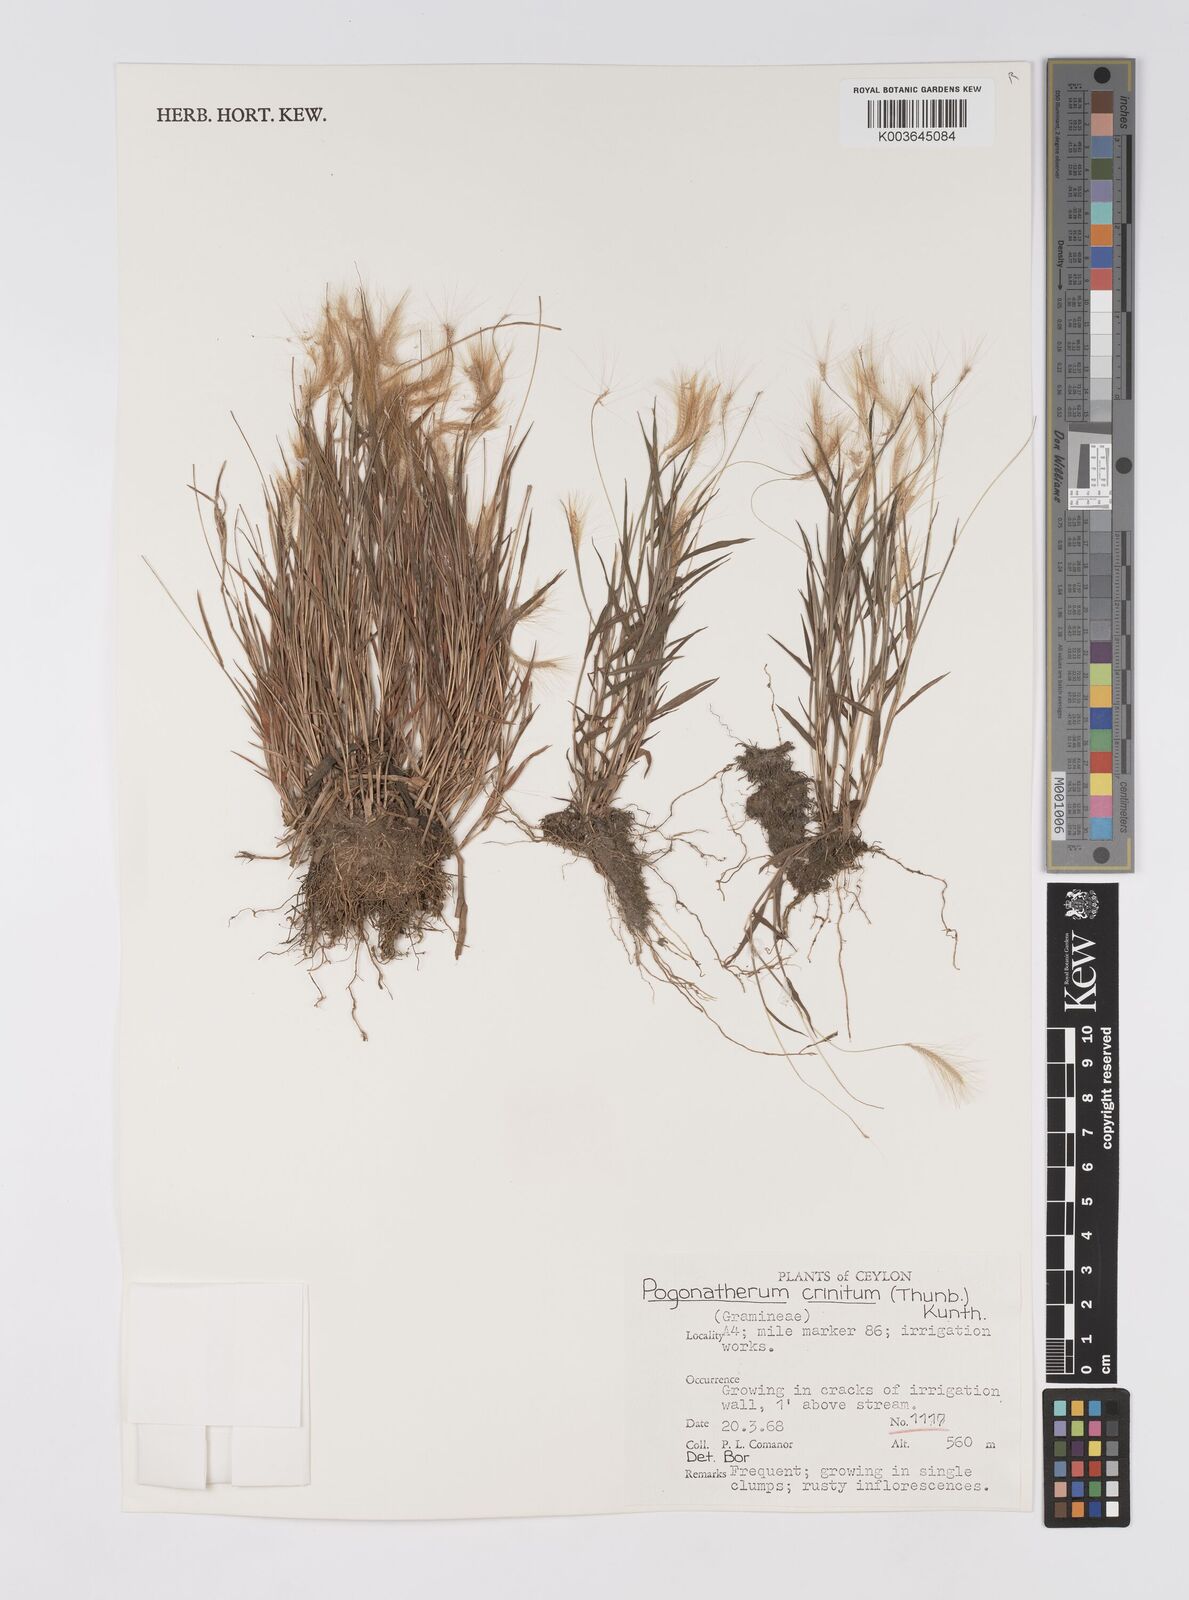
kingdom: Plantae
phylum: Tracheophyta
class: Liliopsida
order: Poales
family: Poaceae
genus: Pogonatherum
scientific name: Pogonatherum crinitum
